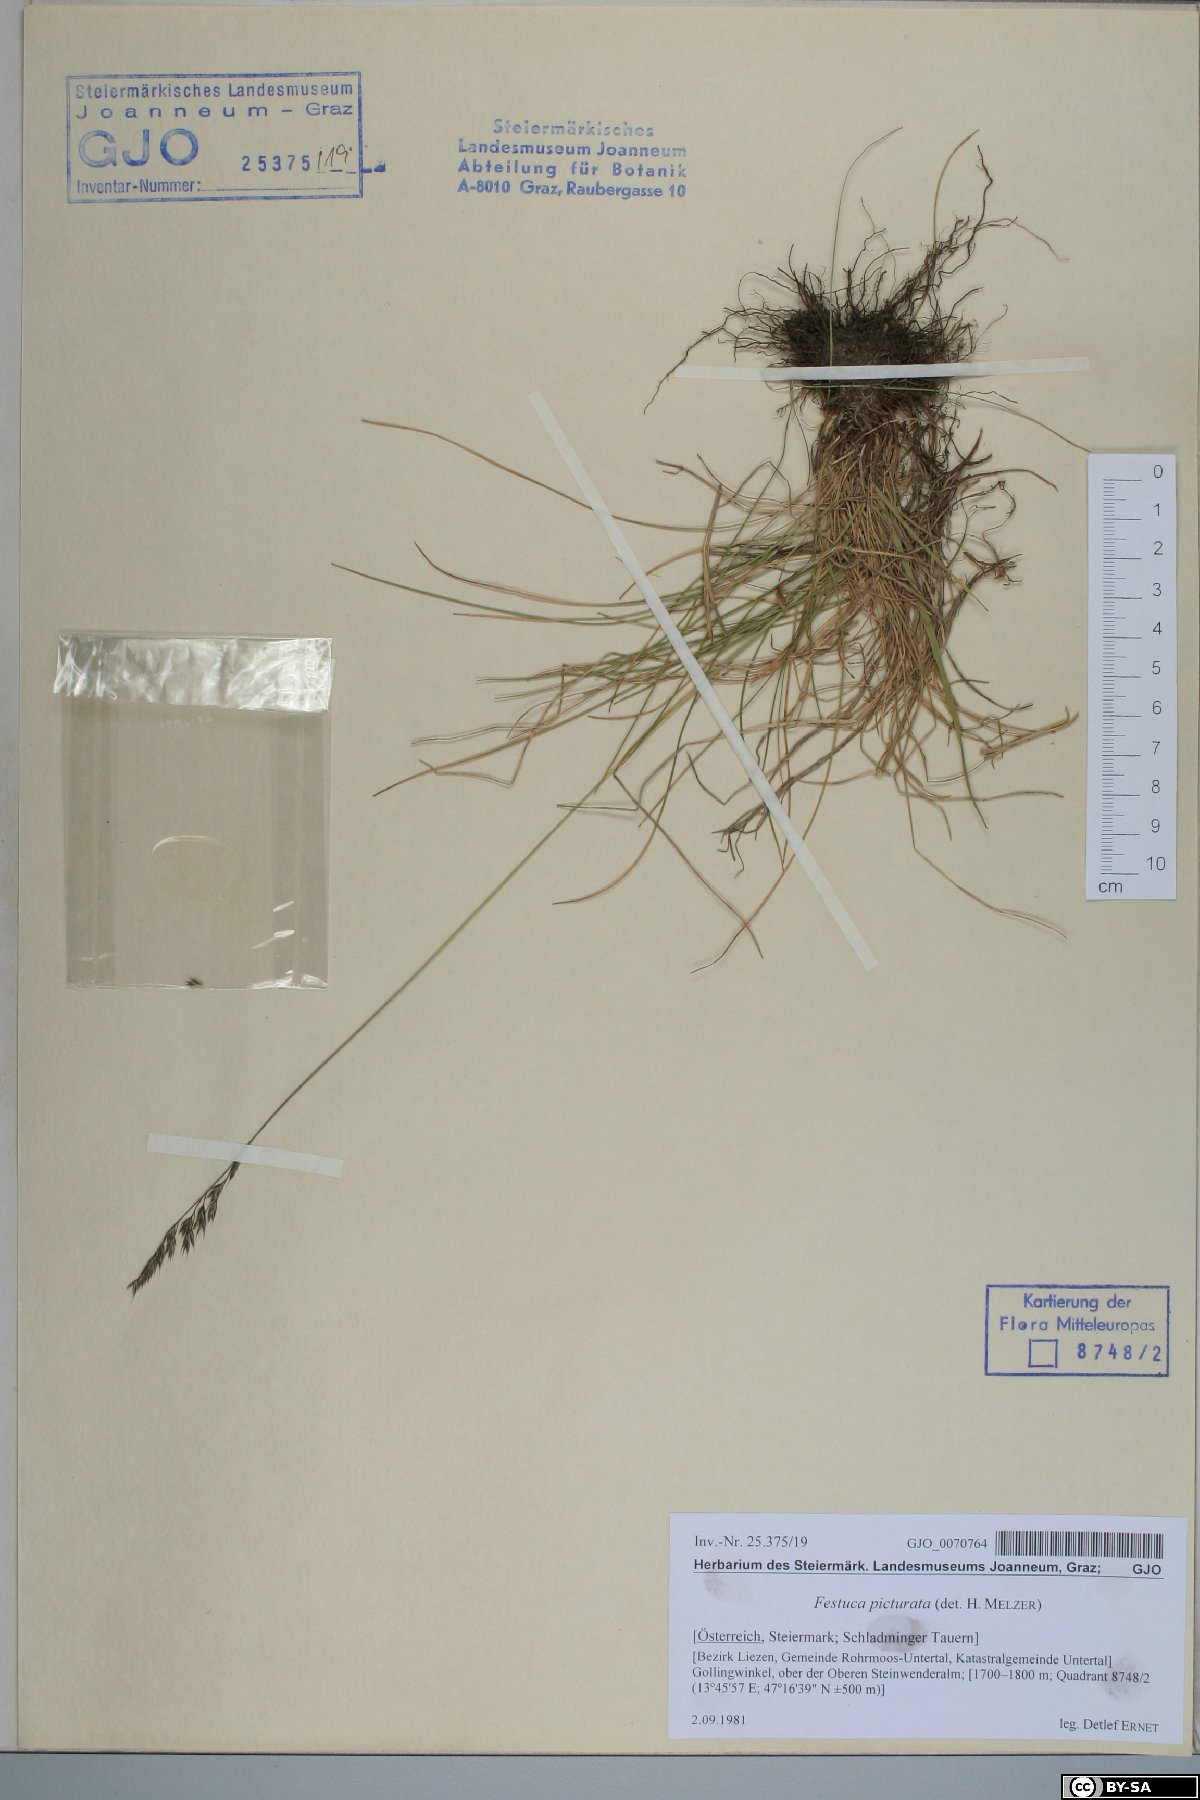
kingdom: Plantae
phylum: Tracheophyta
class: Liliopsida
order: Poales
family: Poaceae
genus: Festuca
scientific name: Festuca picturata
